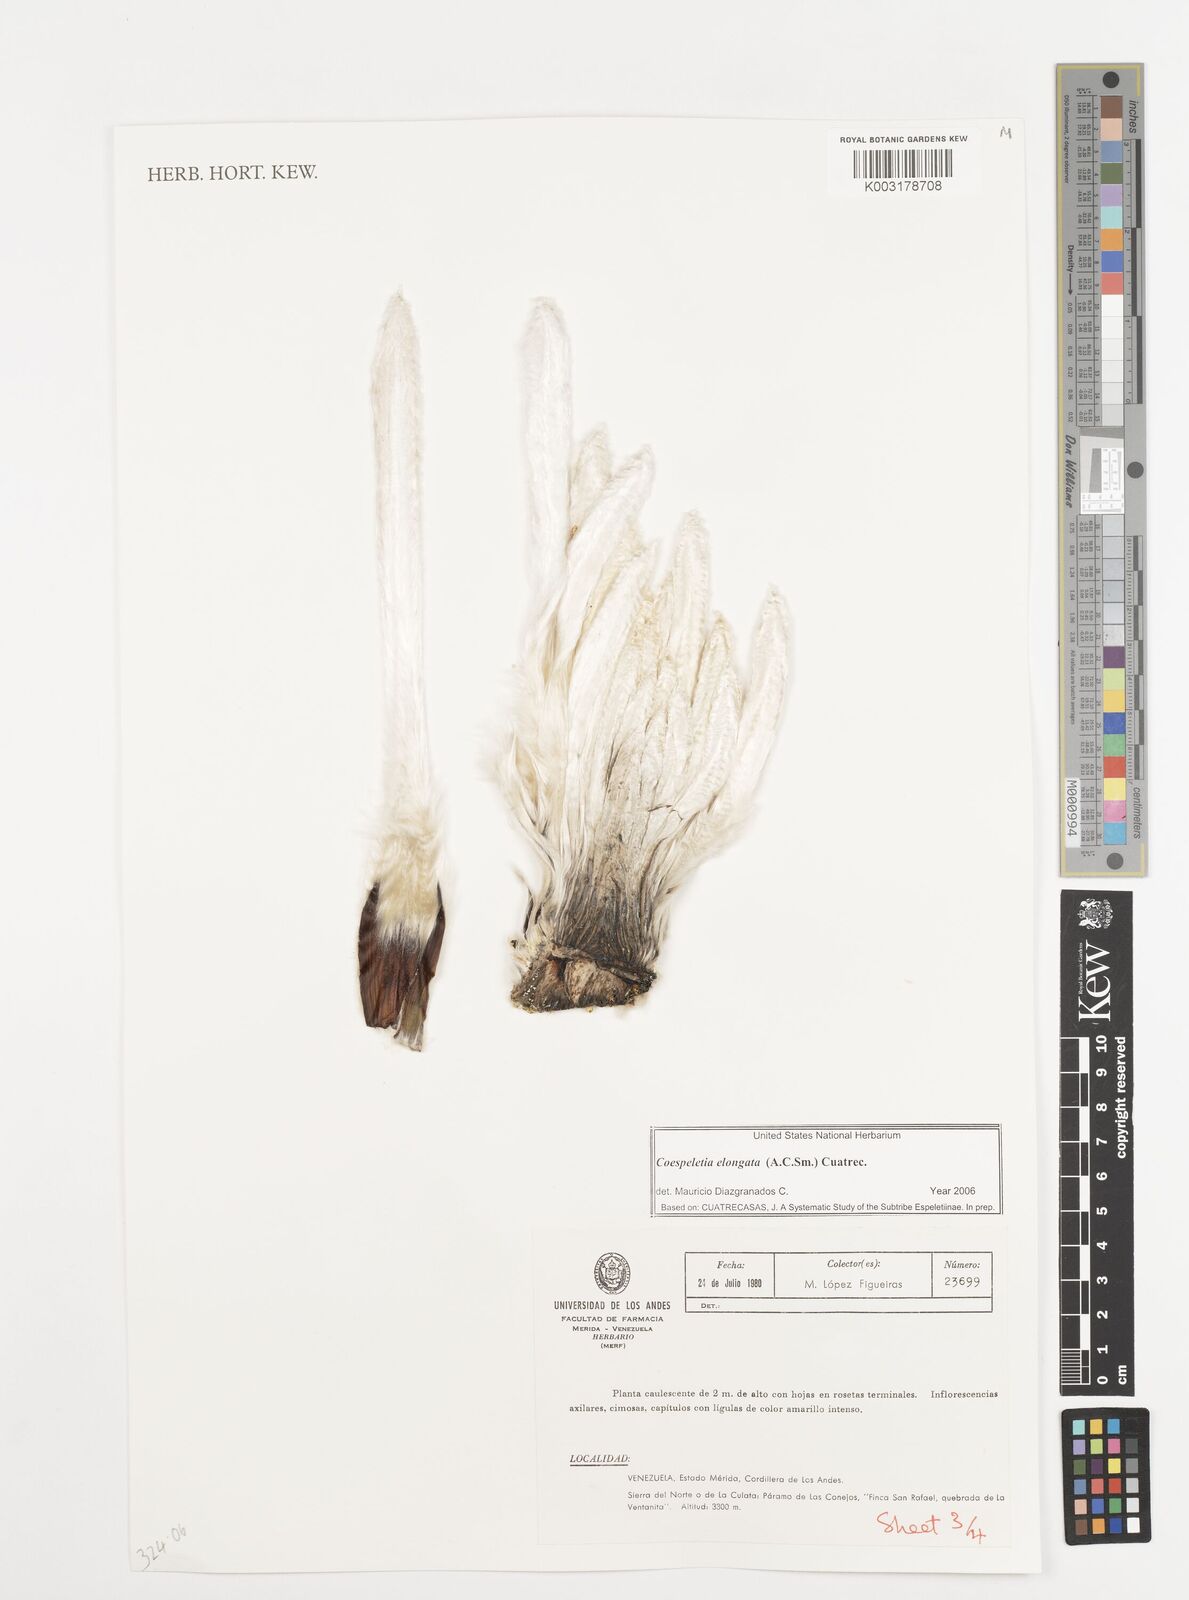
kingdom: Plantae
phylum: Tracheophyta
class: Magnoliopsida
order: Asterales
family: Asteraceae
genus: Espeletia
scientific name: Espeletia elongata
